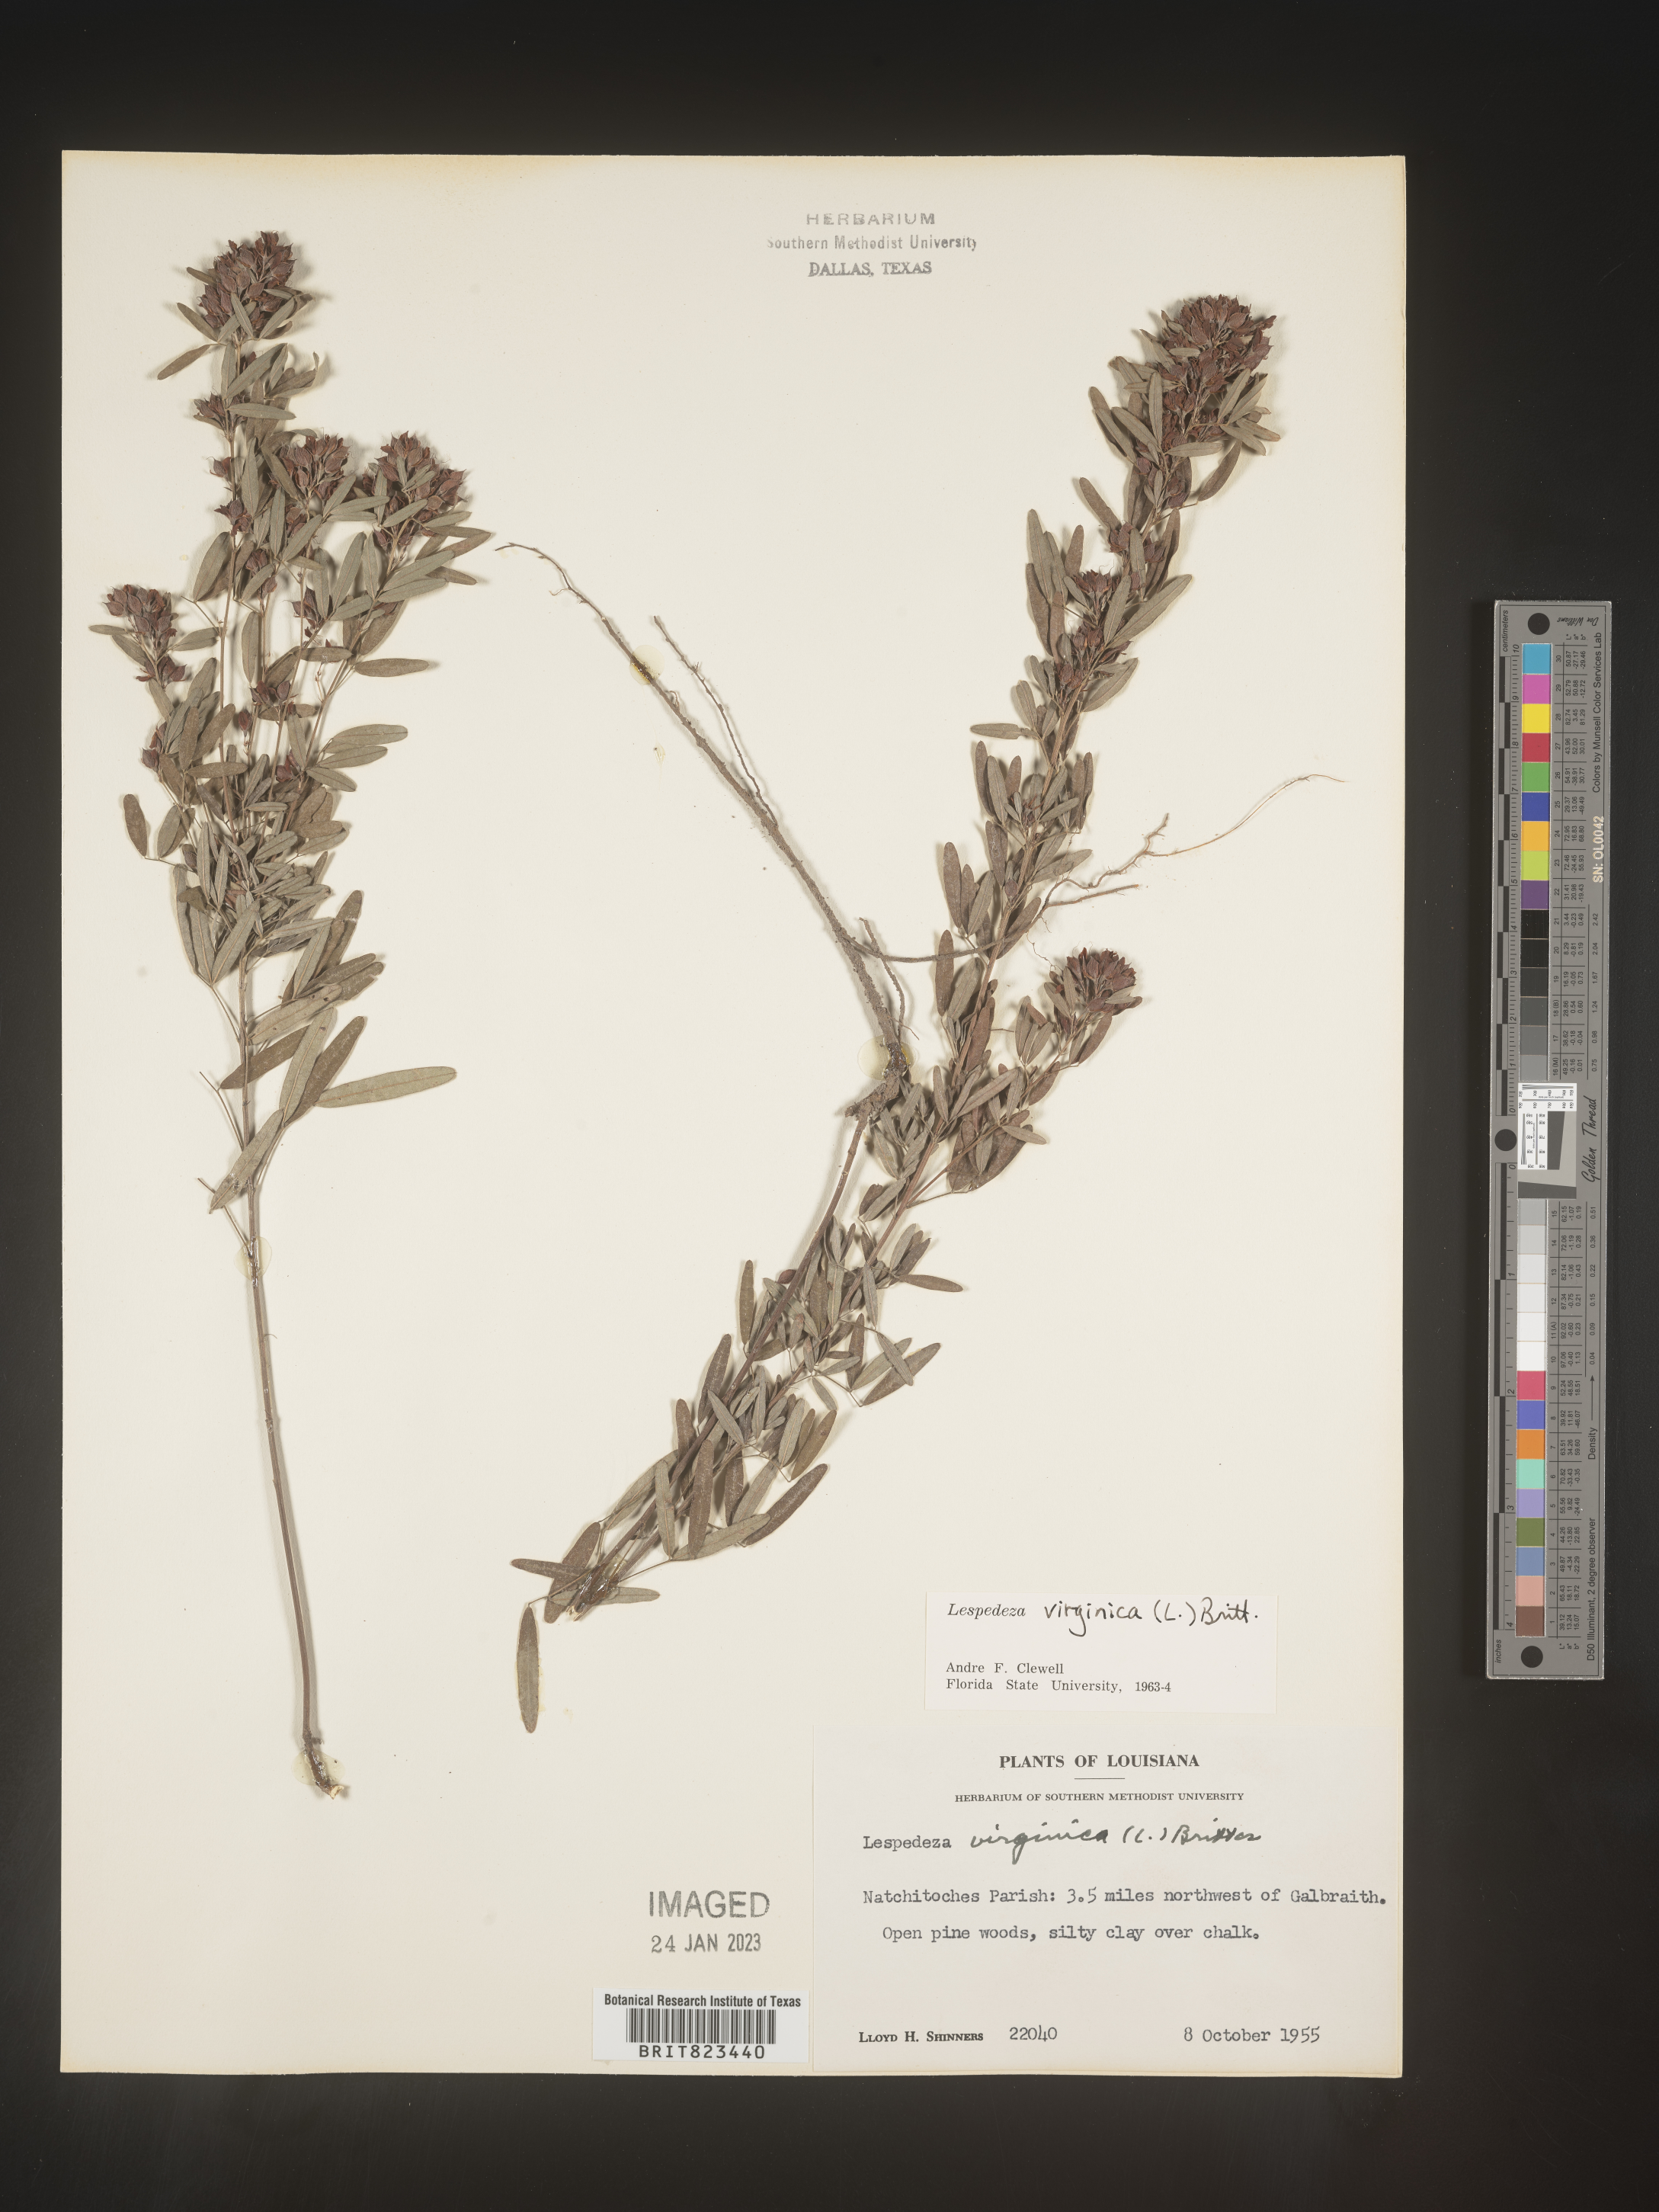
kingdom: Plantae
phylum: Tracheophyta
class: Magnoliopsida
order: Fabales
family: Fabaceae
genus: Lespedeza
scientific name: Lespedeza virginica
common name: Slender bush-clover
